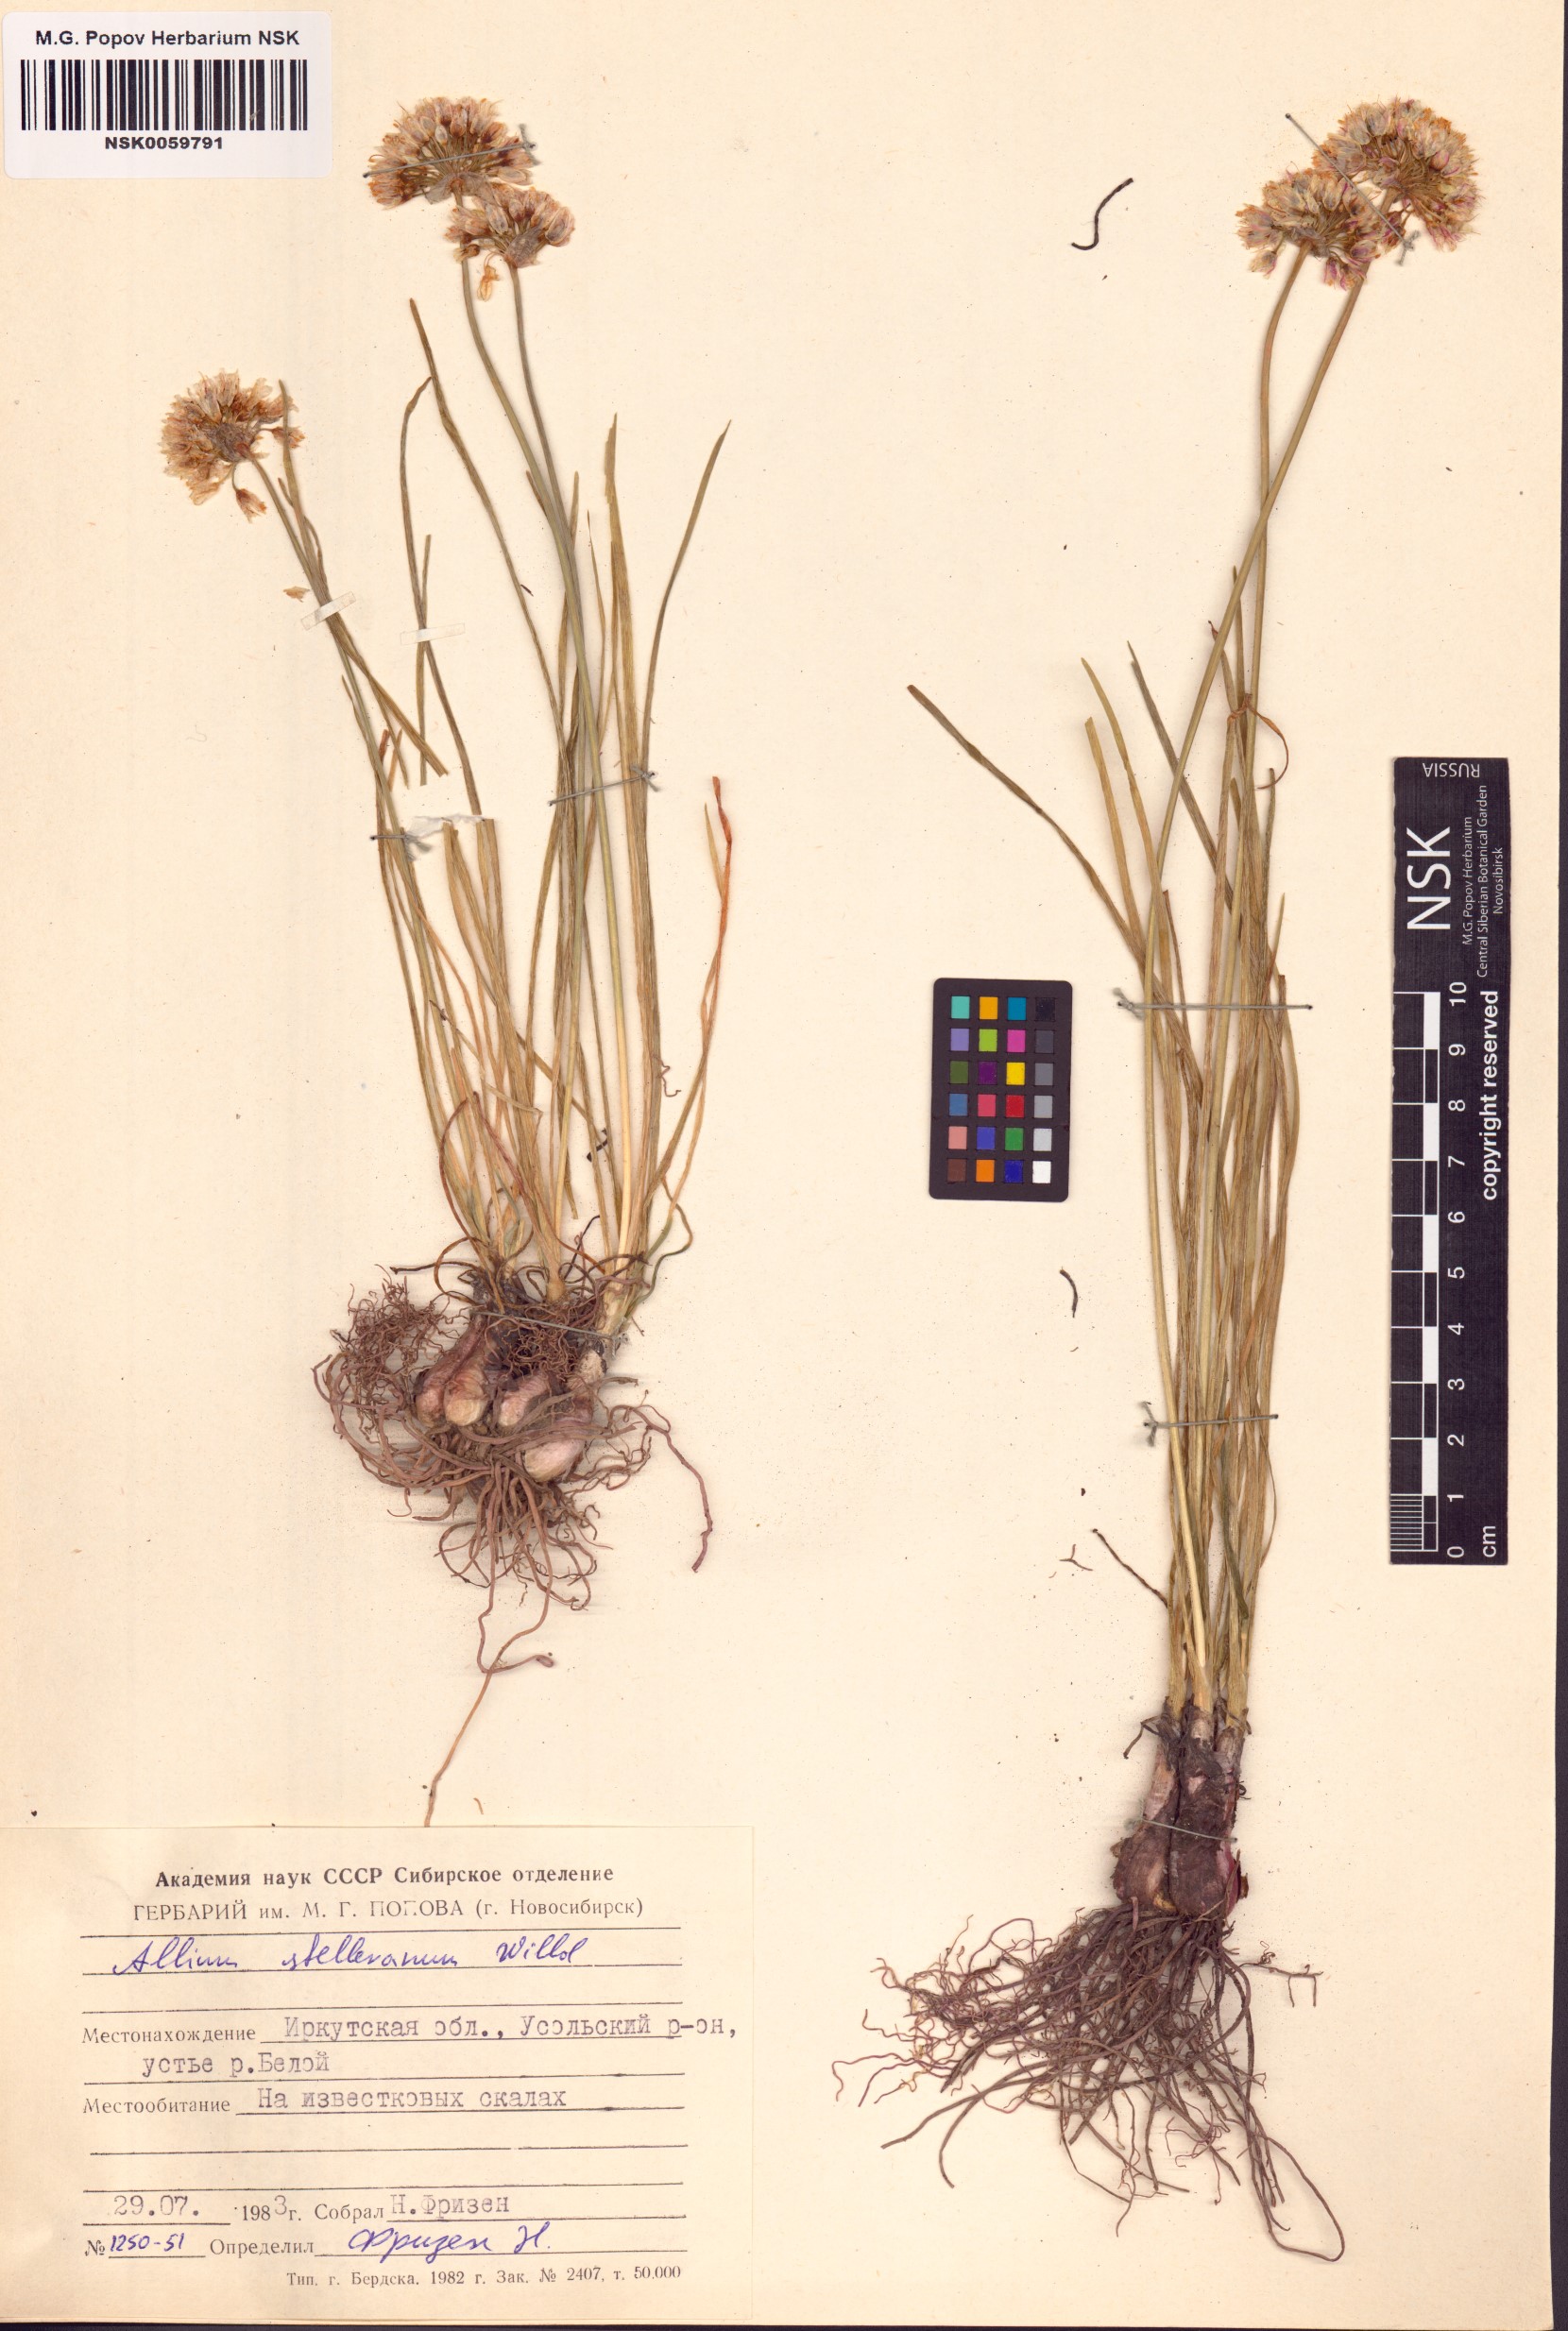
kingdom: Plantae
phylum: Tracheophyta
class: Liliopsida
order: Asparagales
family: Amaryllidaceae
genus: Allium
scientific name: Allium stellerianum
